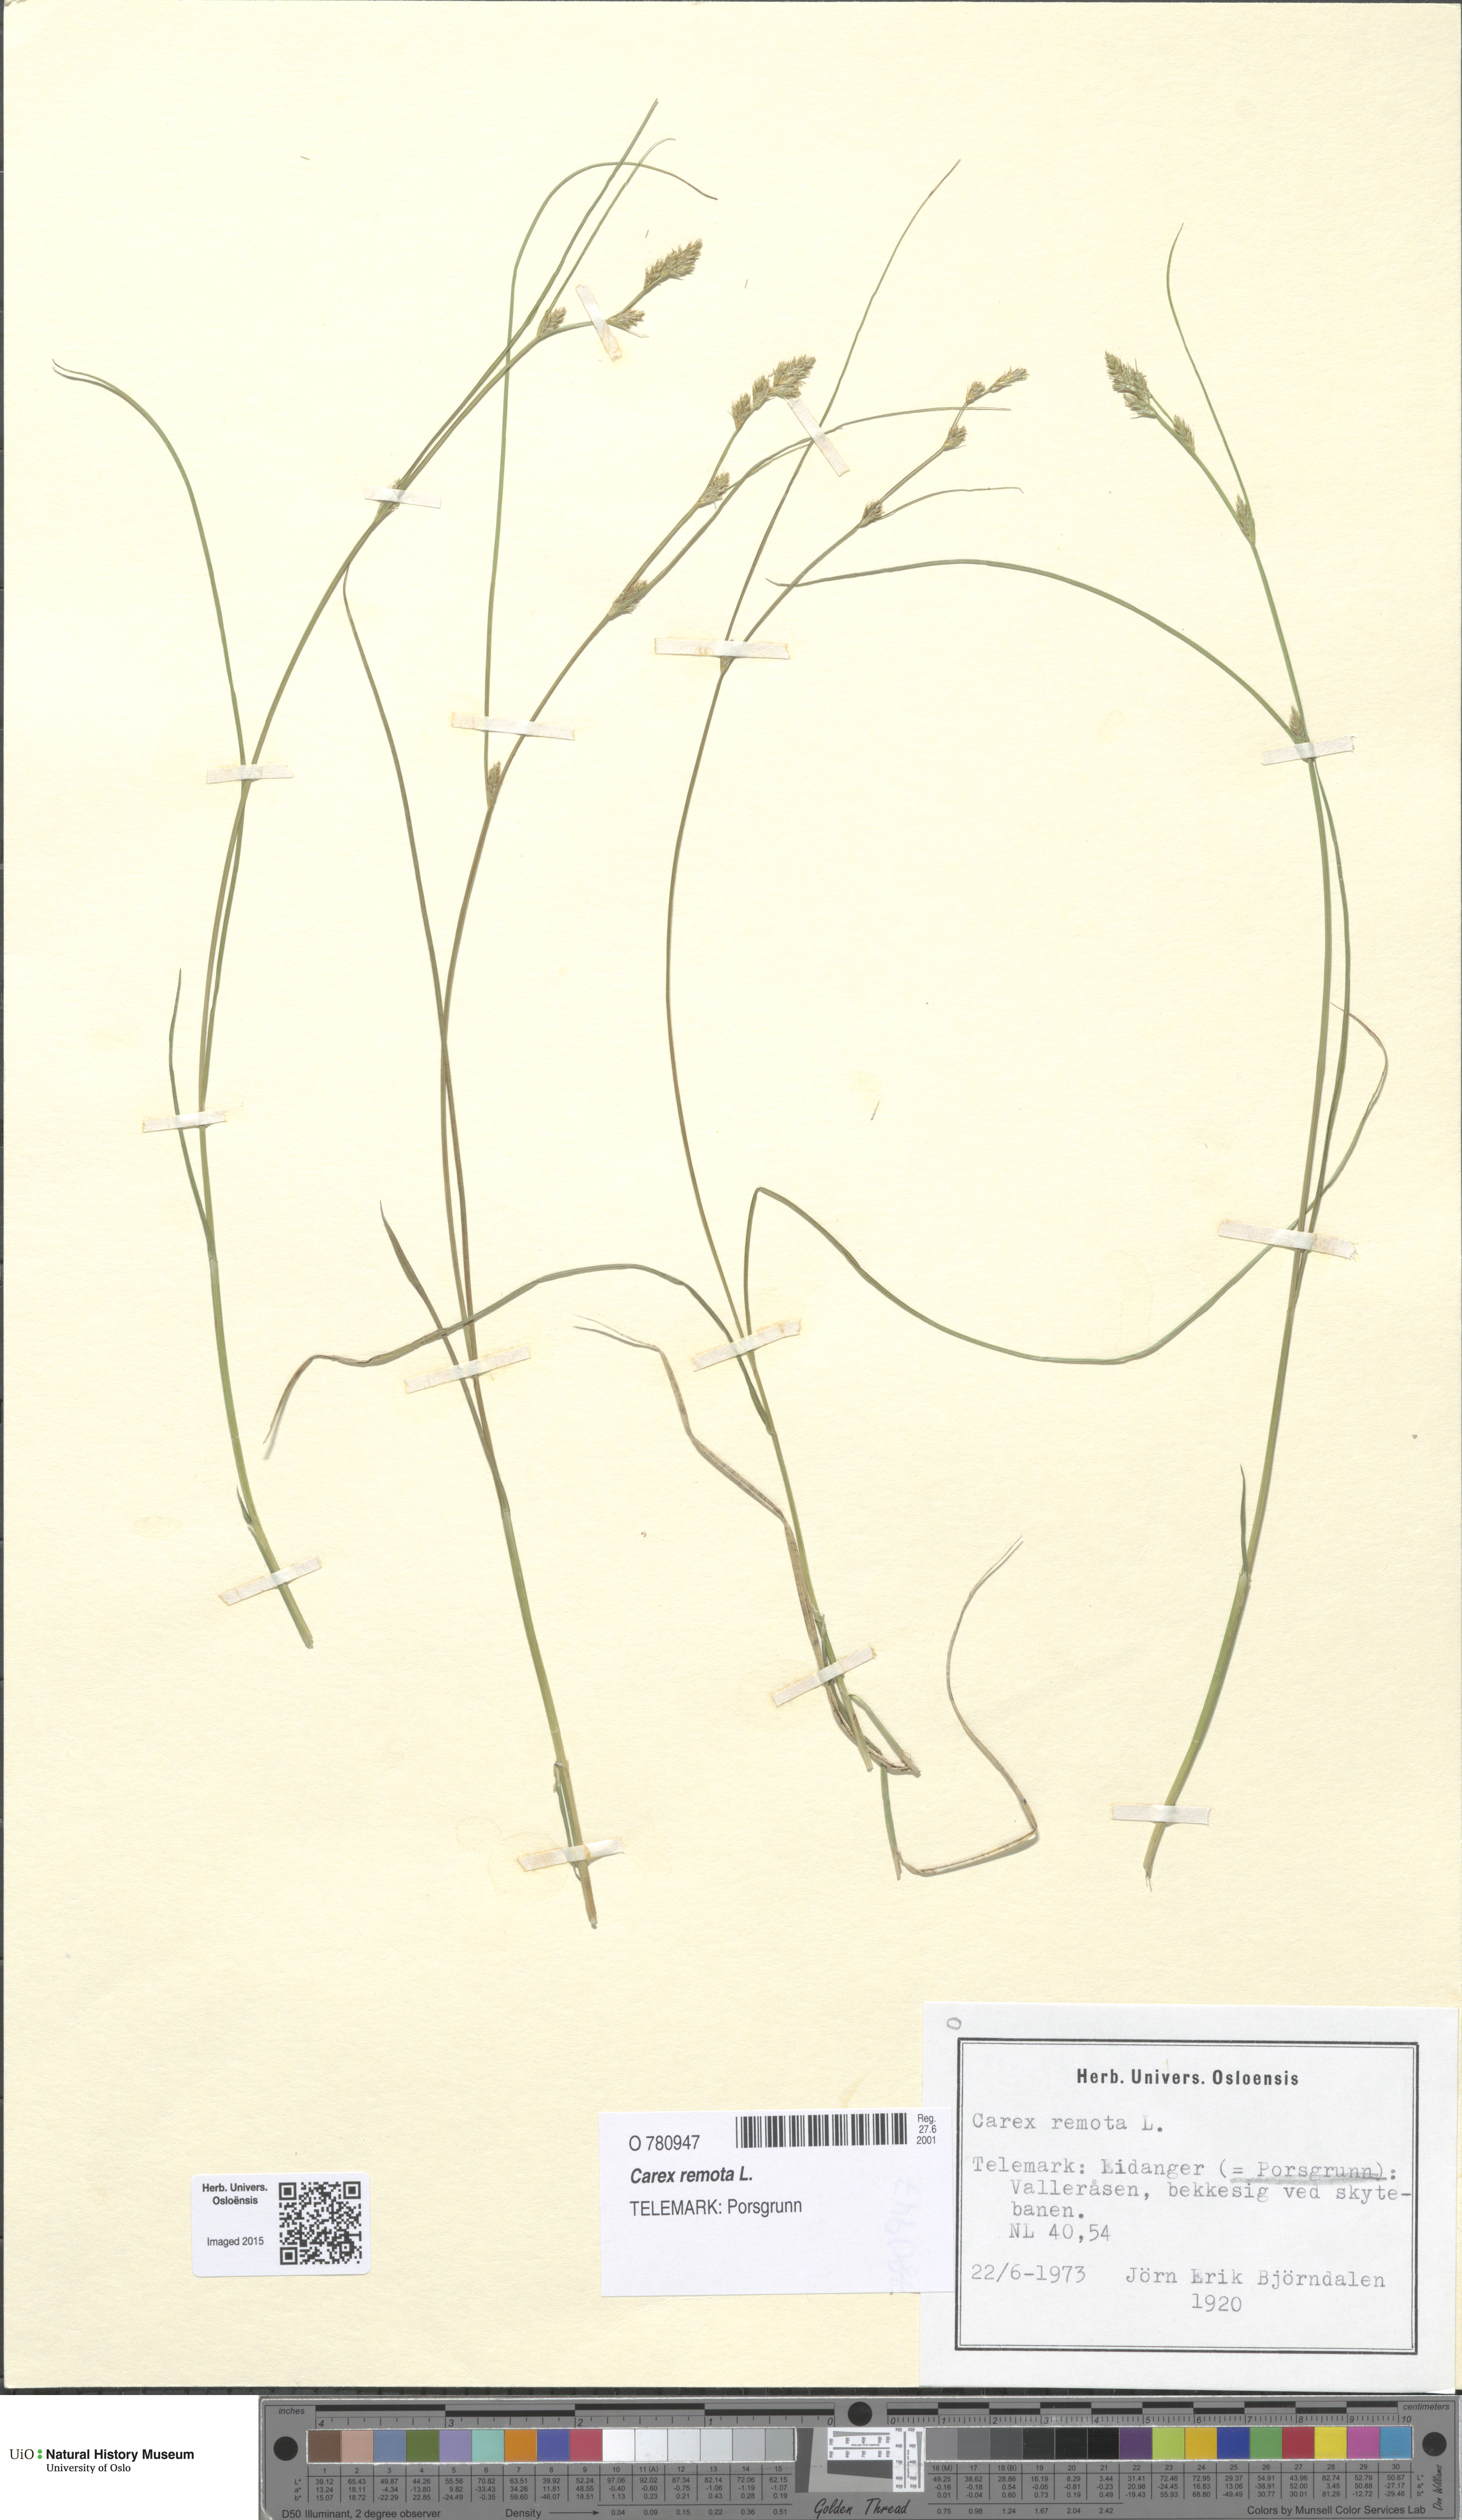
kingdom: Plantae
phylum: Tracheophyta
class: Liliopsida
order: Poales
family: Cyperaceae
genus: Carex
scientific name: Carex remota
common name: Remote sedge
